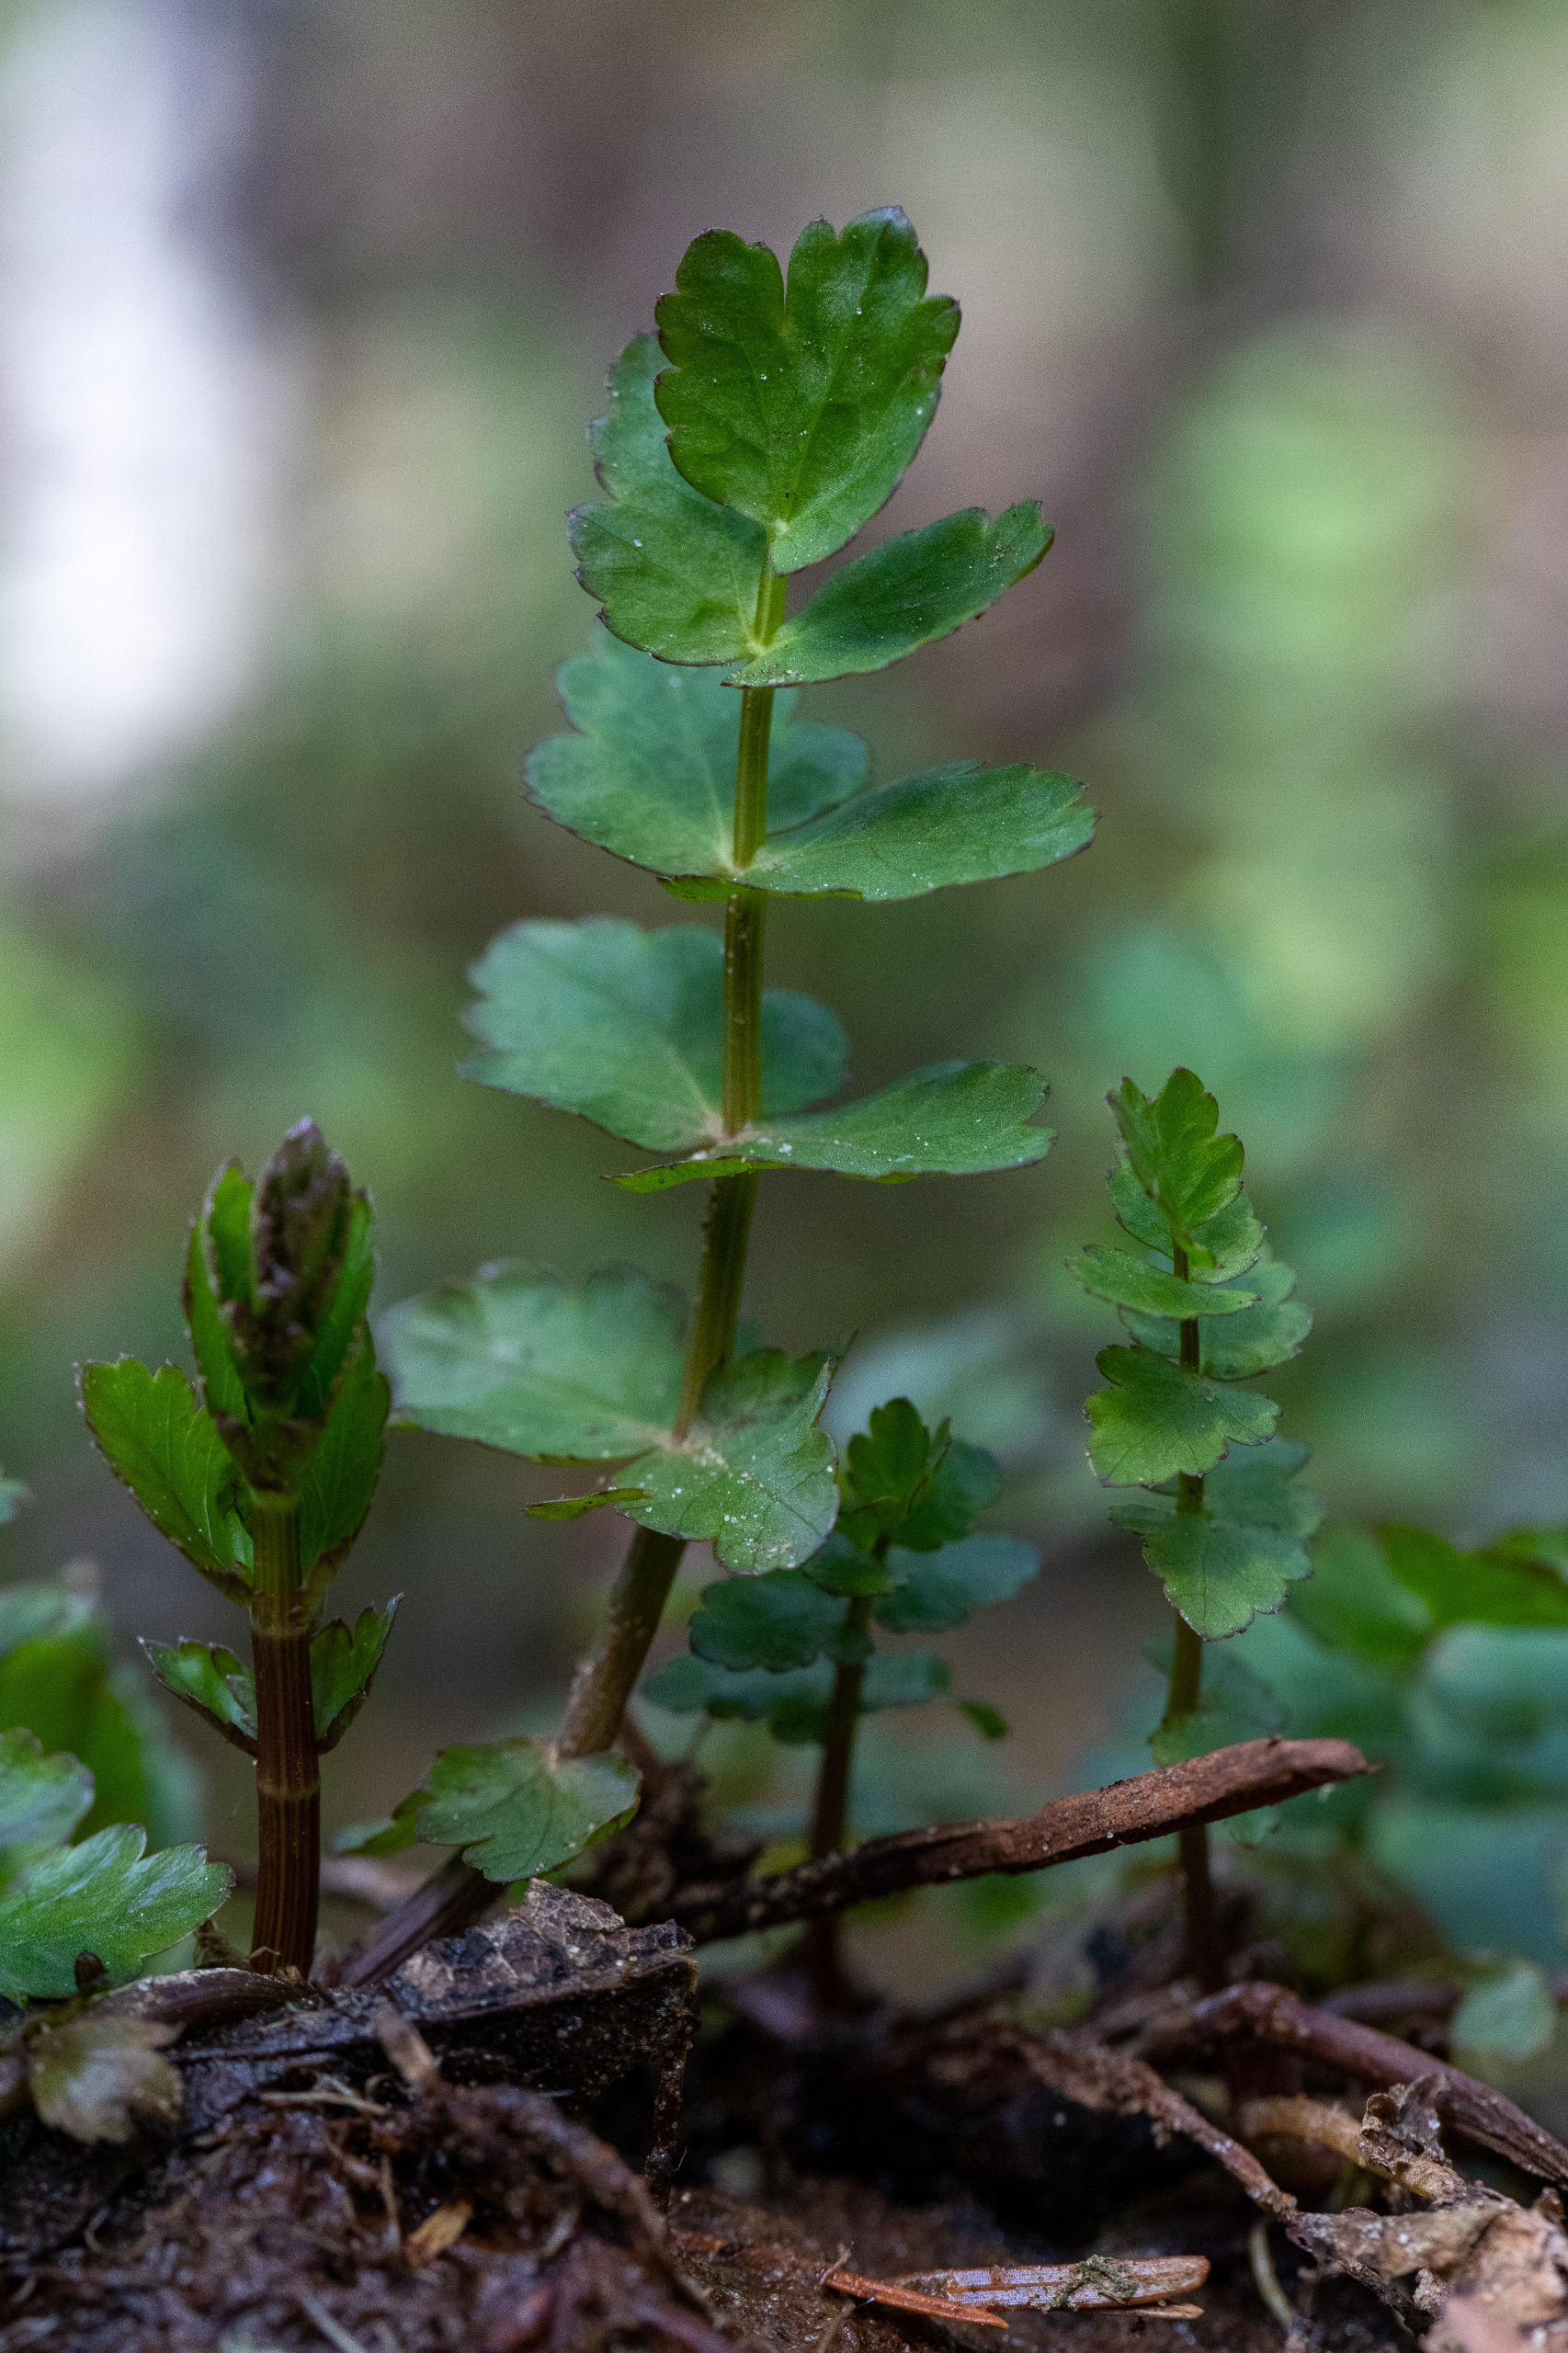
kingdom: Plantae
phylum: Tracheophyta
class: Magnoliopsida
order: Apiales
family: Apiaceae
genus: Berula
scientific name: Berula erecta
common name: Sideskærm
